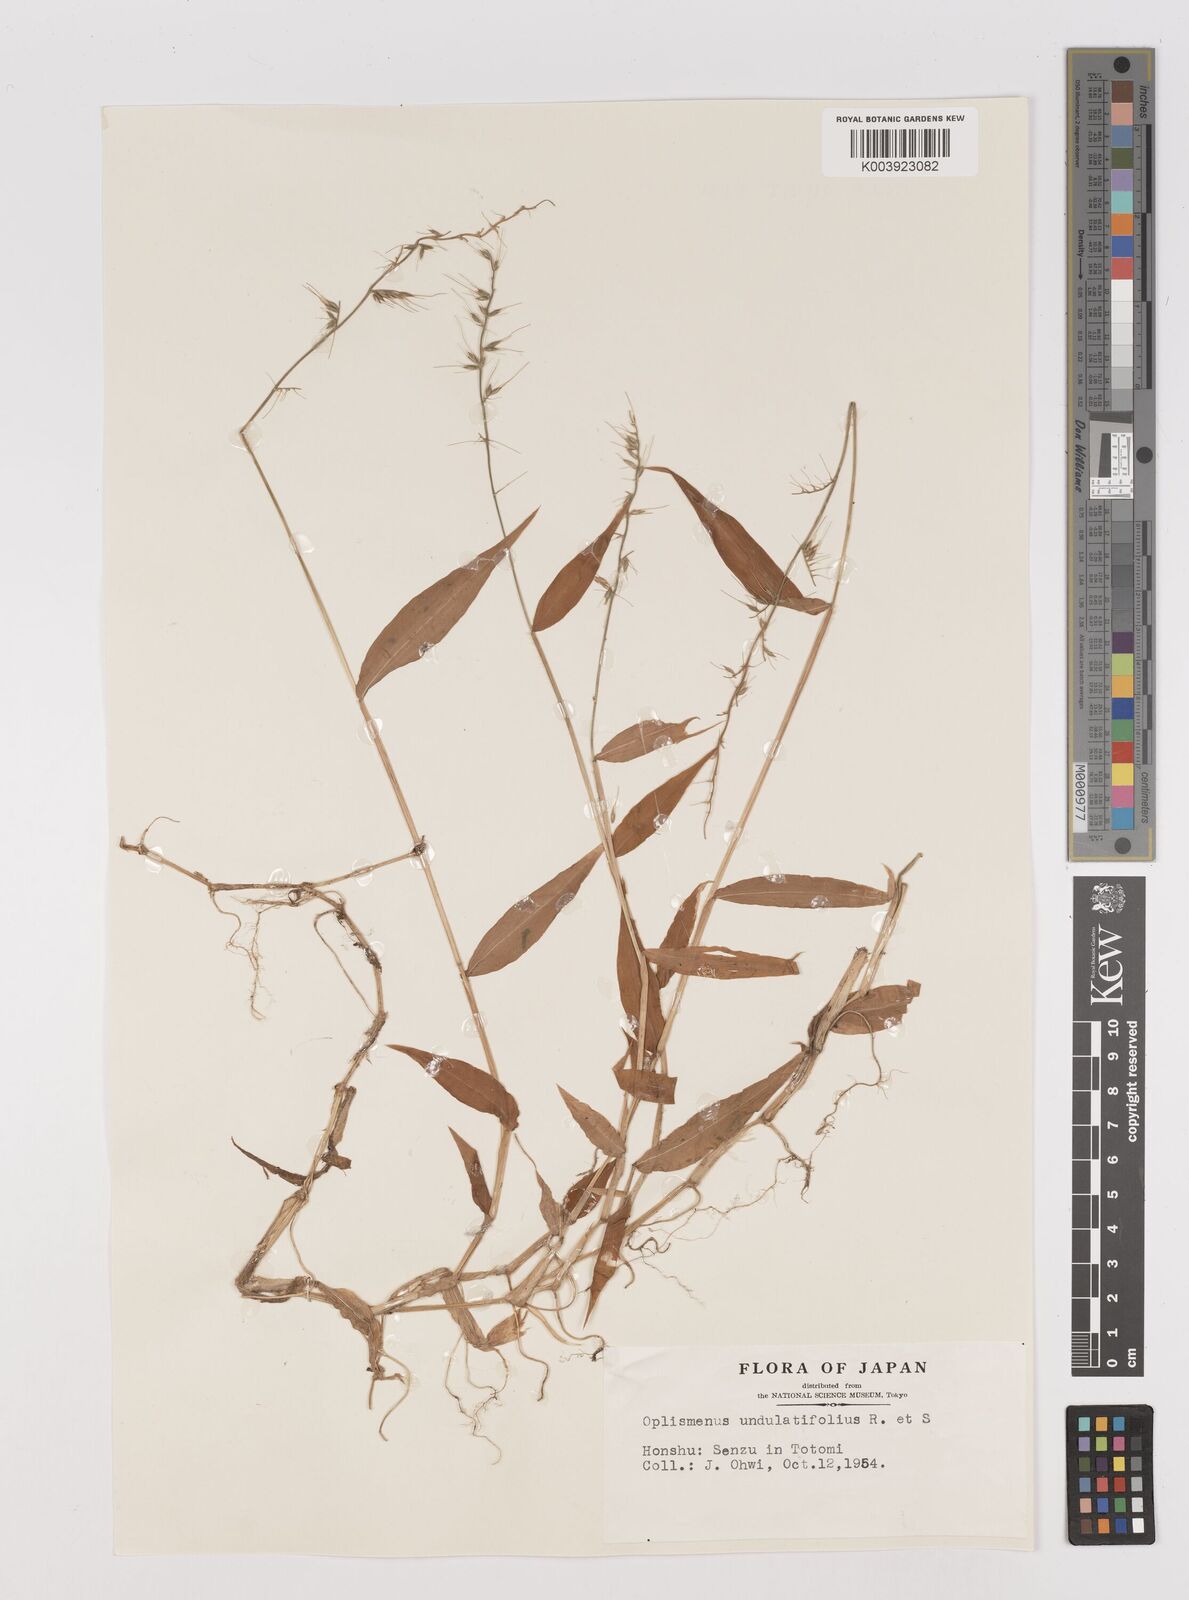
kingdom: Plantae
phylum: Tracheophyta
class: Liliopsida
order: Poales
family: Poaceae
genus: Oplismenus
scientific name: Oplismenus undulatifolius
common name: Wavyleaf basketgrass
